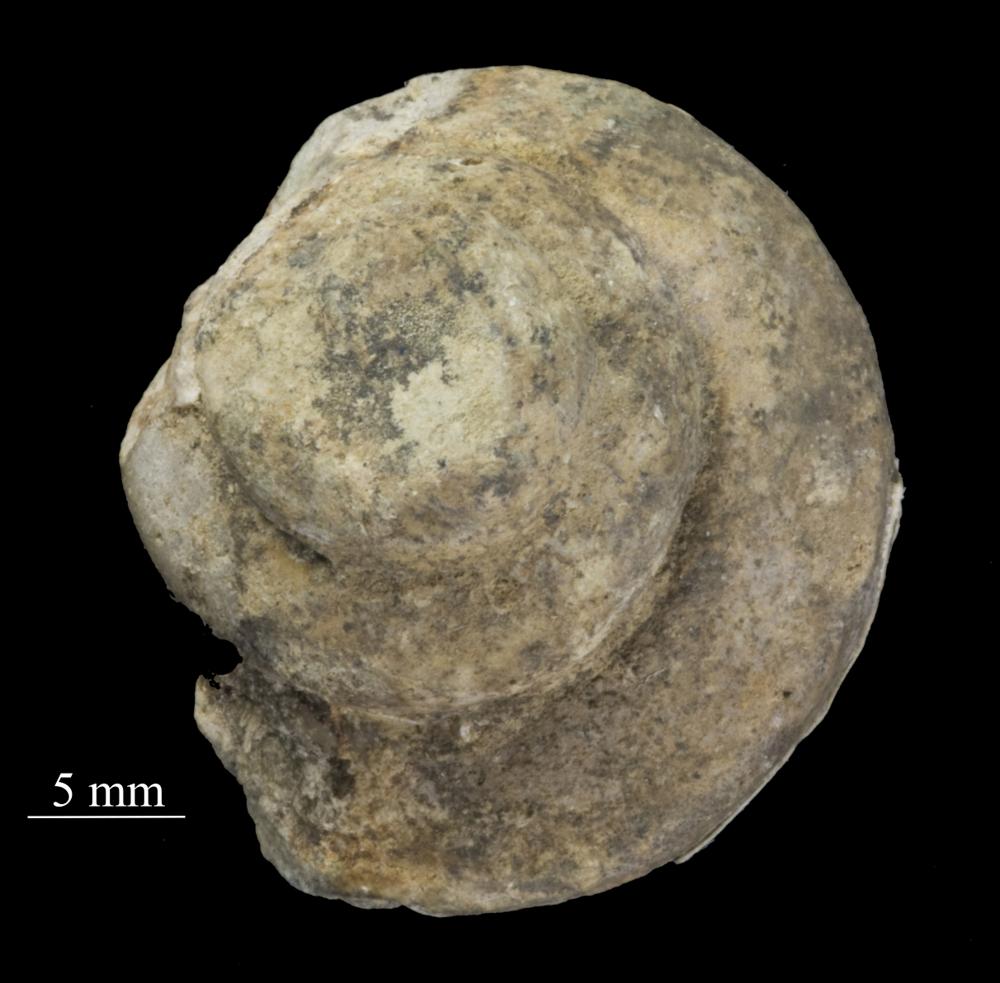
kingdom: Animalia
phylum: Mollusca
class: Gastropoda
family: Lophospiridae
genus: Loxoplocus
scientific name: Loxoplocus Lophospira sedgwicki
